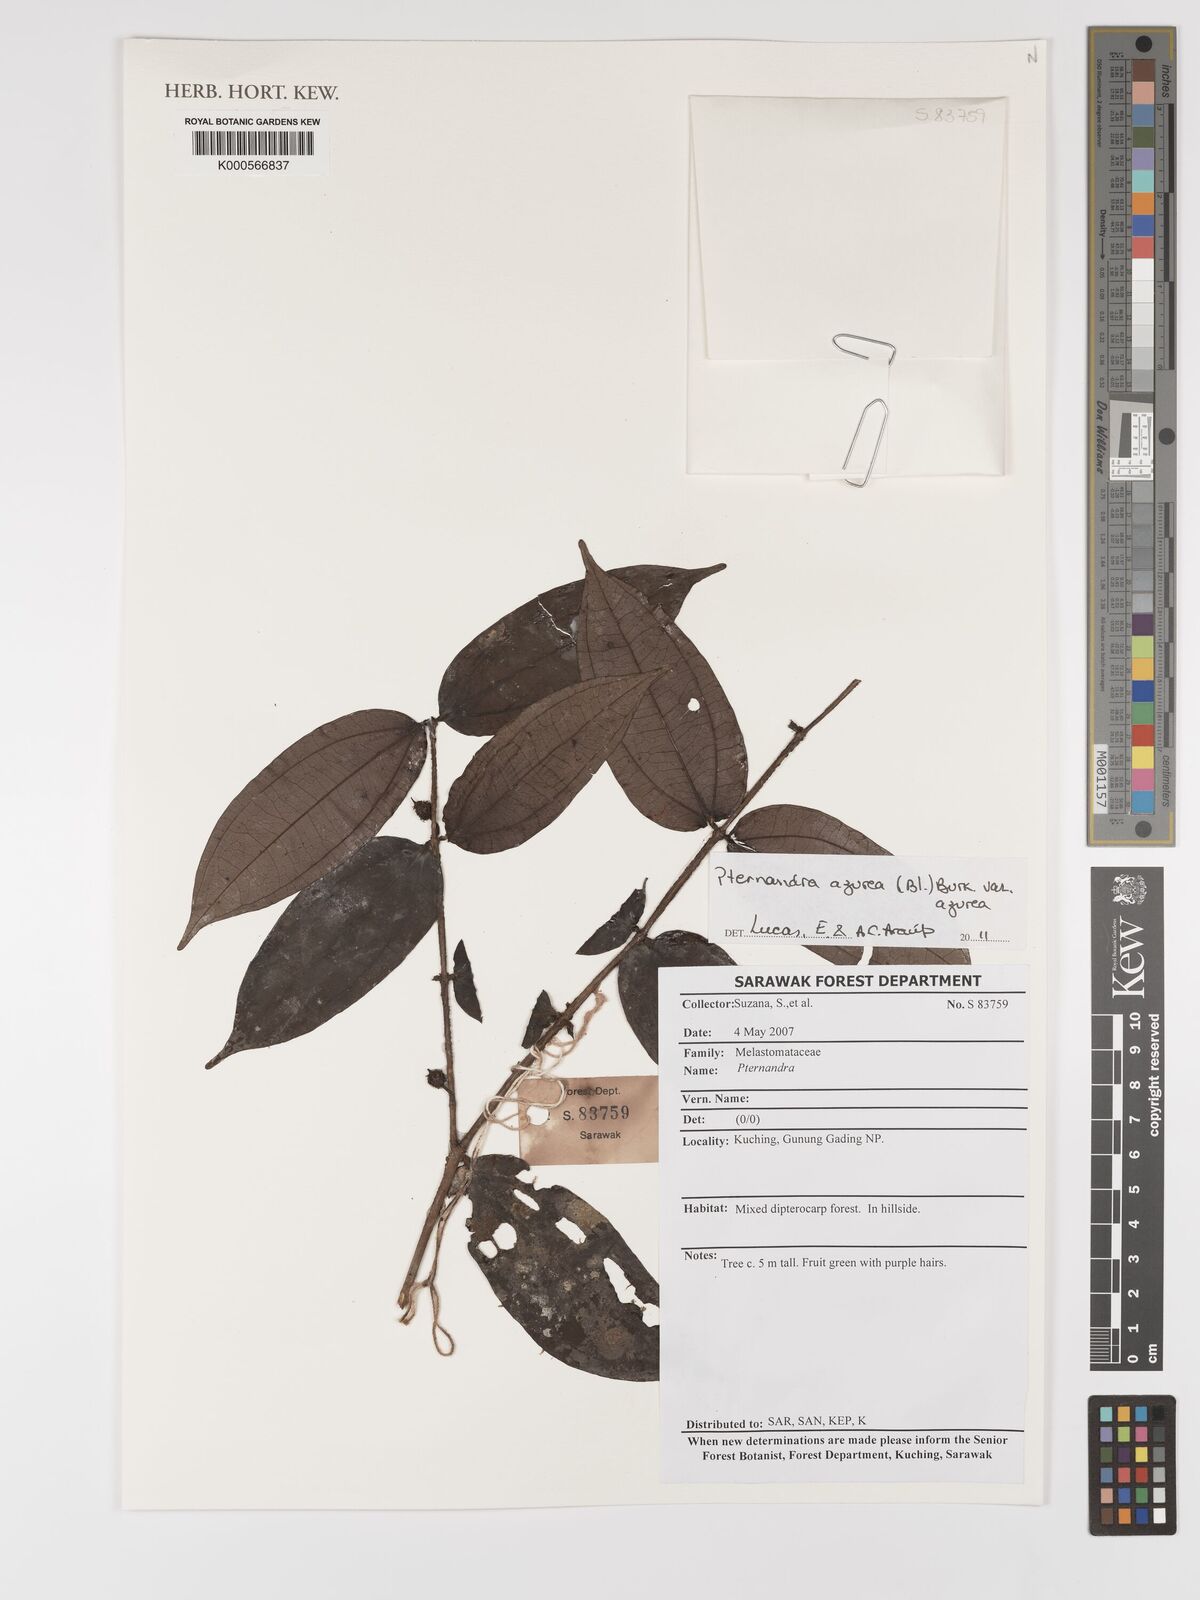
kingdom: Plantae
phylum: Tracheophyta
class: Magnoliopsida
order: Myrtales
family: Melastomataceae
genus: Pternandra
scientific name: Pternandra azurea
